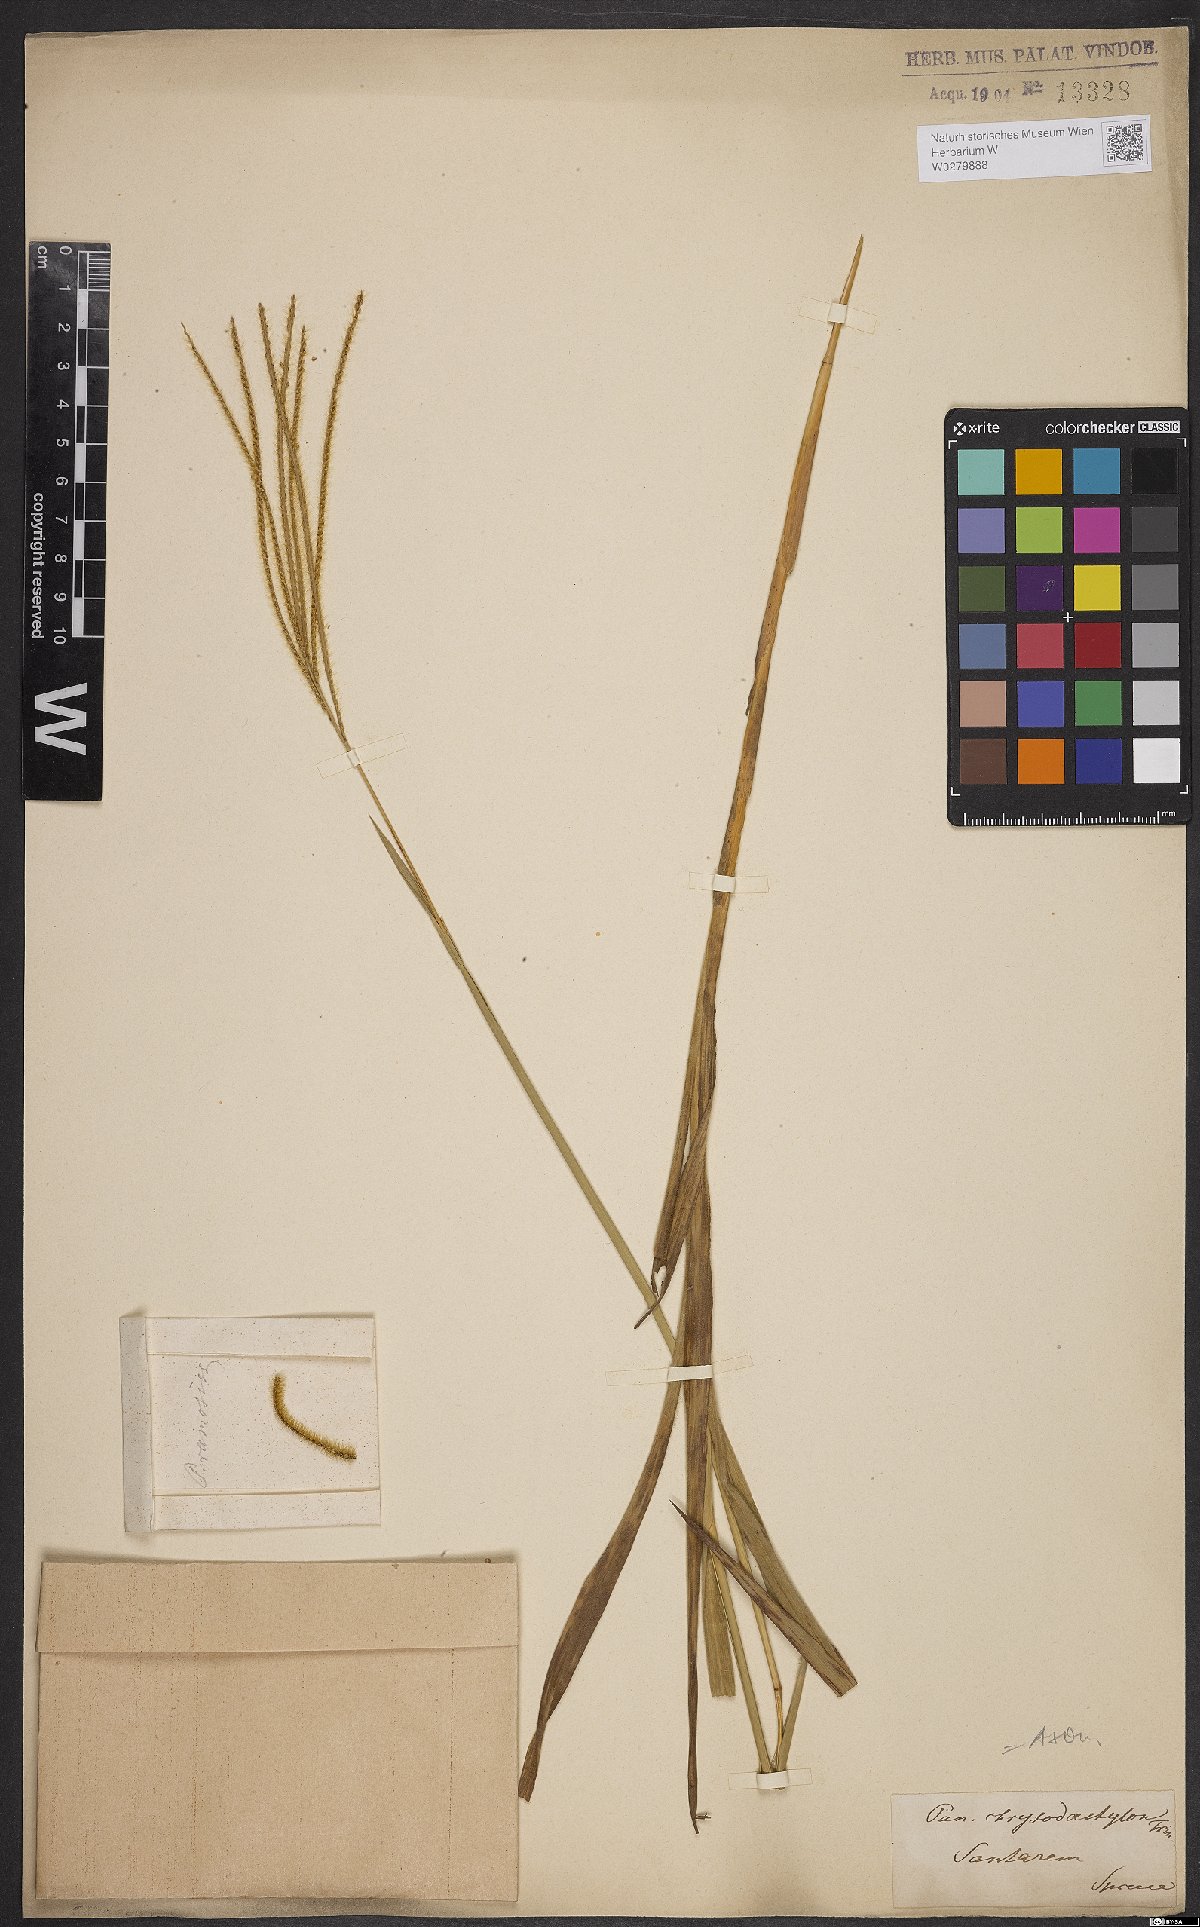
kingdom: Plantae
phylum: Tracheophyta
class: Liliopsida
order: Poales
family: Poaceae
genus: Axonopus
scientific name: Axonopus aureus
